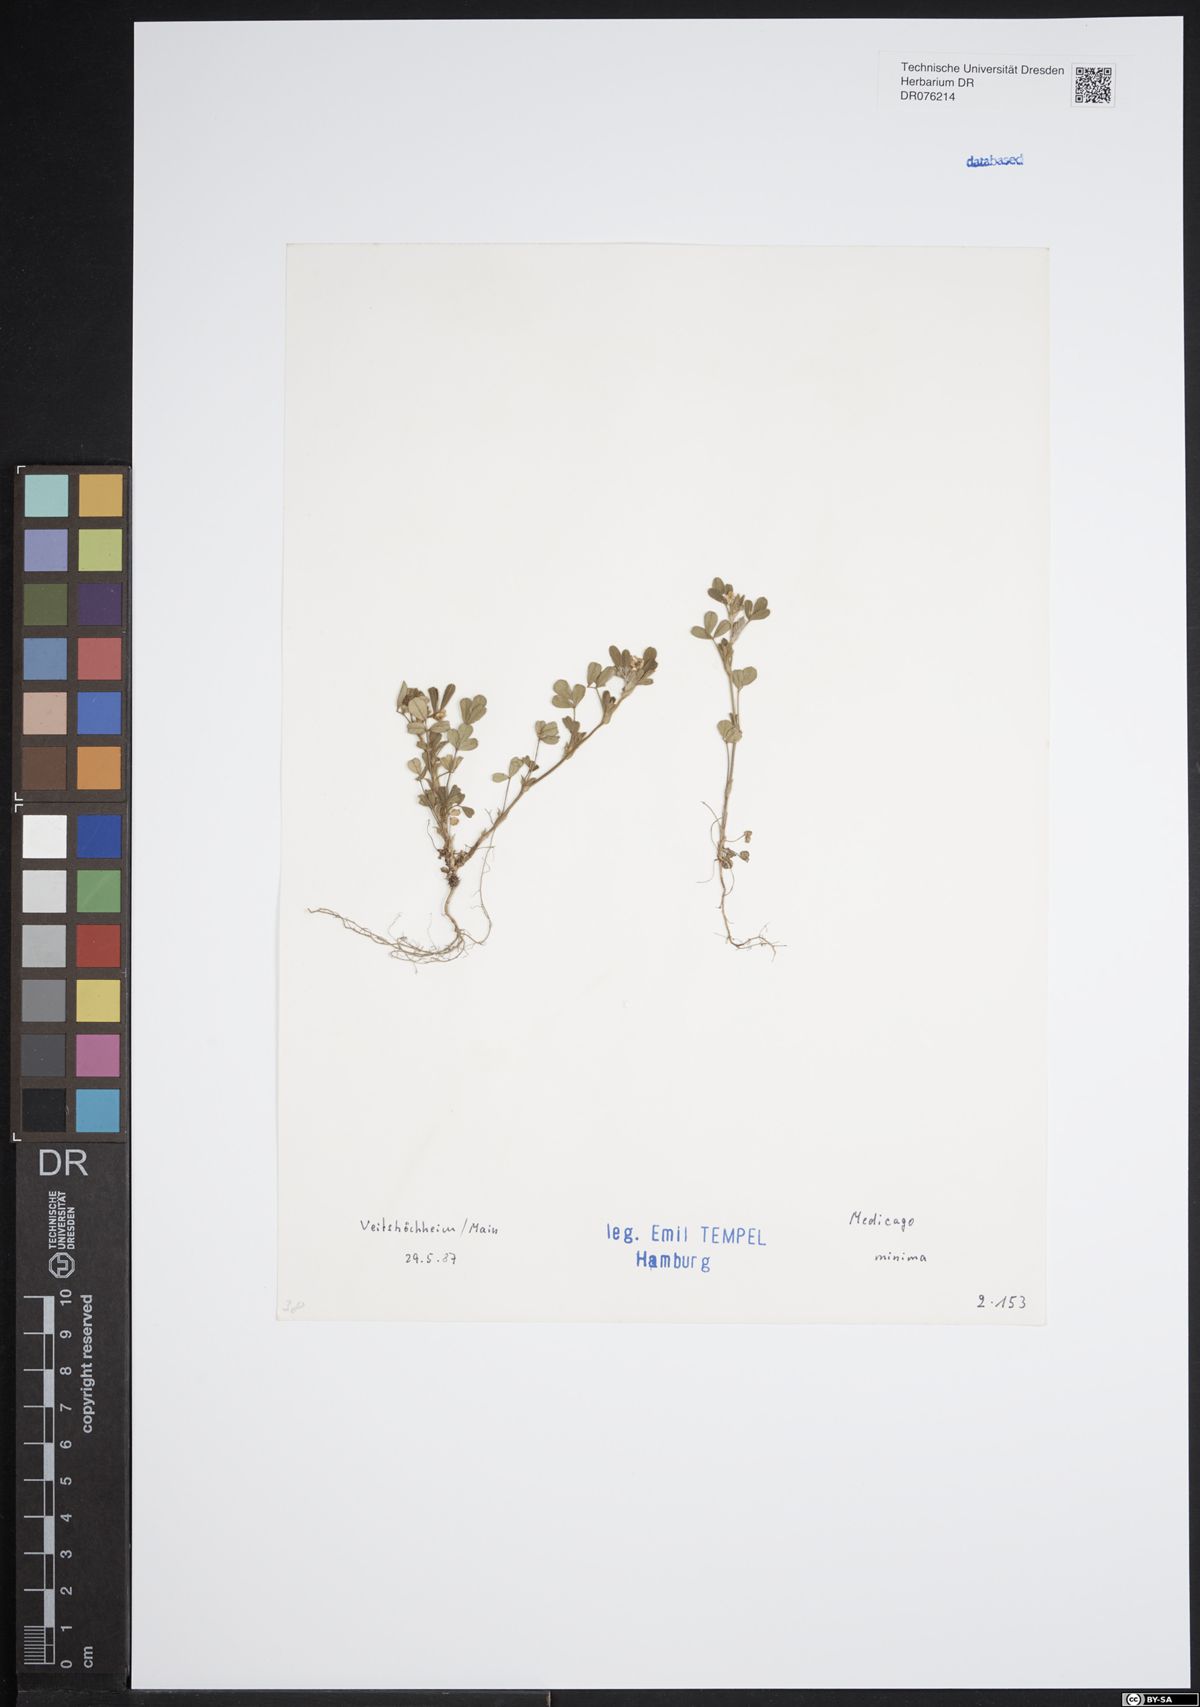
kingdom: Plantae
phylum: Tracheophyta
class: Magnoliopsida
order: Fabales
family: Fabaceae
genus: Medicago
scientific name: Medicago minima
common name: Little bur-clover
